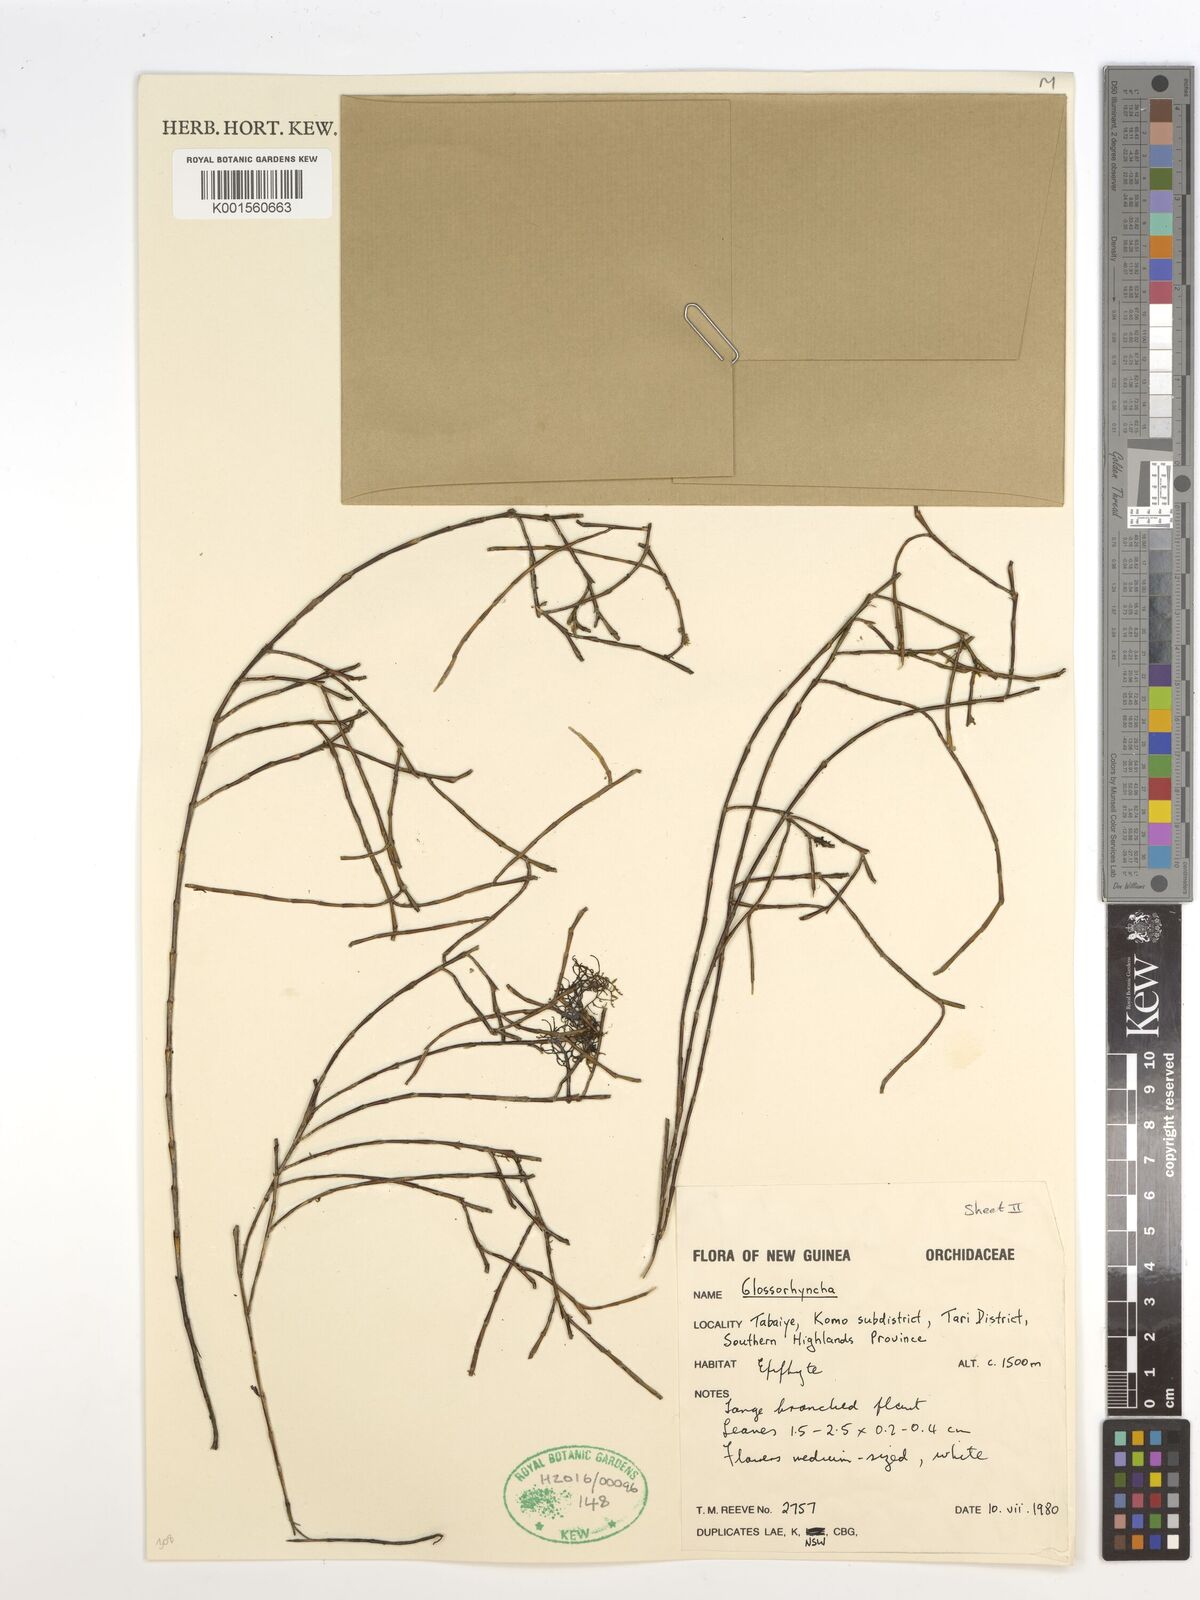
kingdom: Plantae
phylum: Tracheophyta
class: Liliopsida
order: Asparagales
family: Orchidaceae
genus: Glomera
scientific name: Glomera
